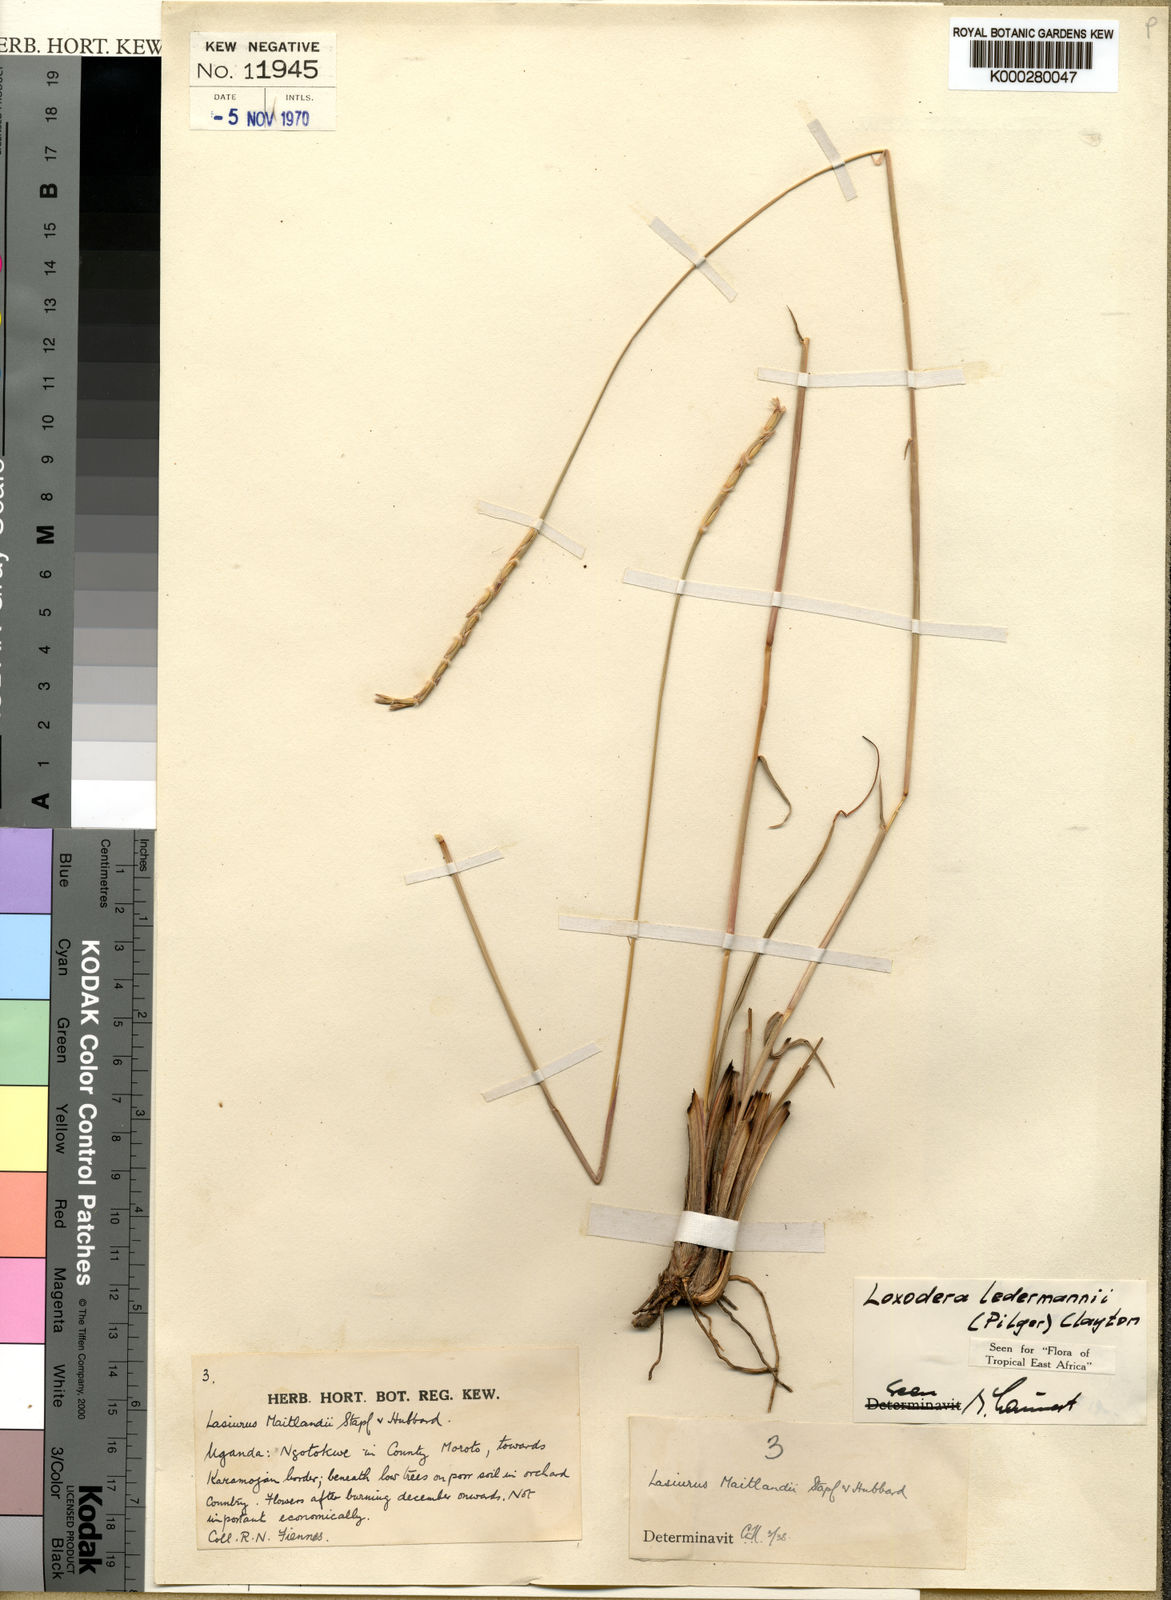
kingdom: Plantae
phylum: Tracheophyta
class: Liliopsida
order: Poales
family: Poaceae
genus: Loxodera
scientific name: Loxodera
